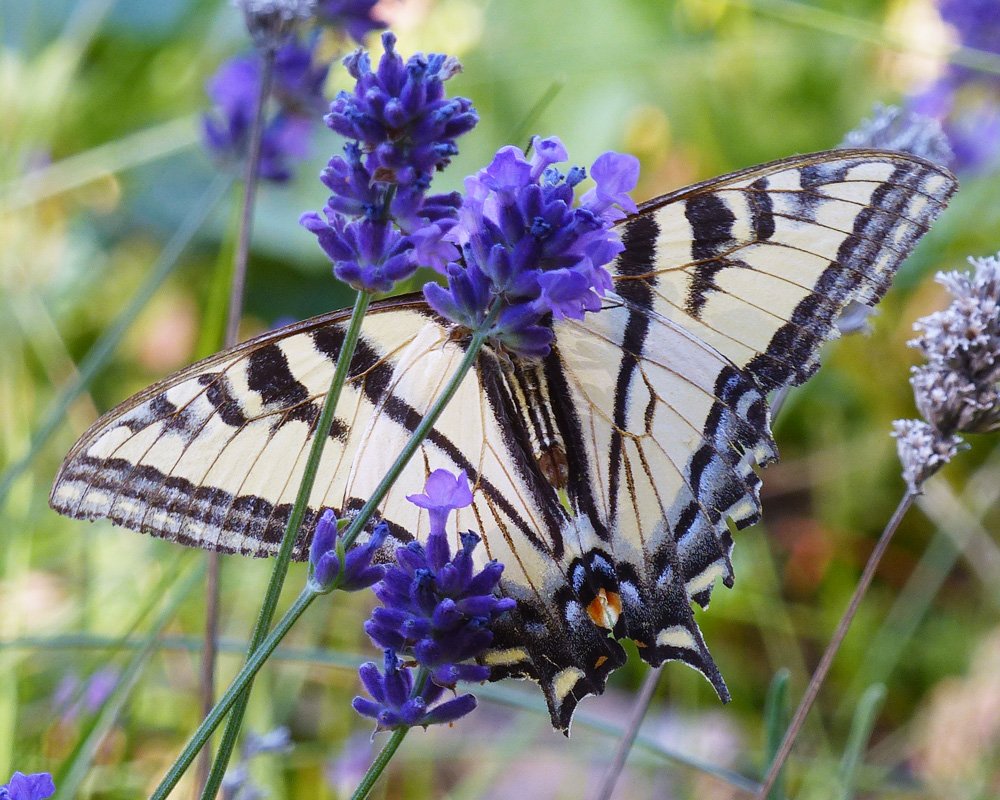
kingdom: Animalia
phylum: Arthropoda
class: Insecta
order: Lepidoptera
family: Papilionidae
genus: Pterourus
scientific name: Pterourus rutulus
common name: Western Tiger Swallowtail
